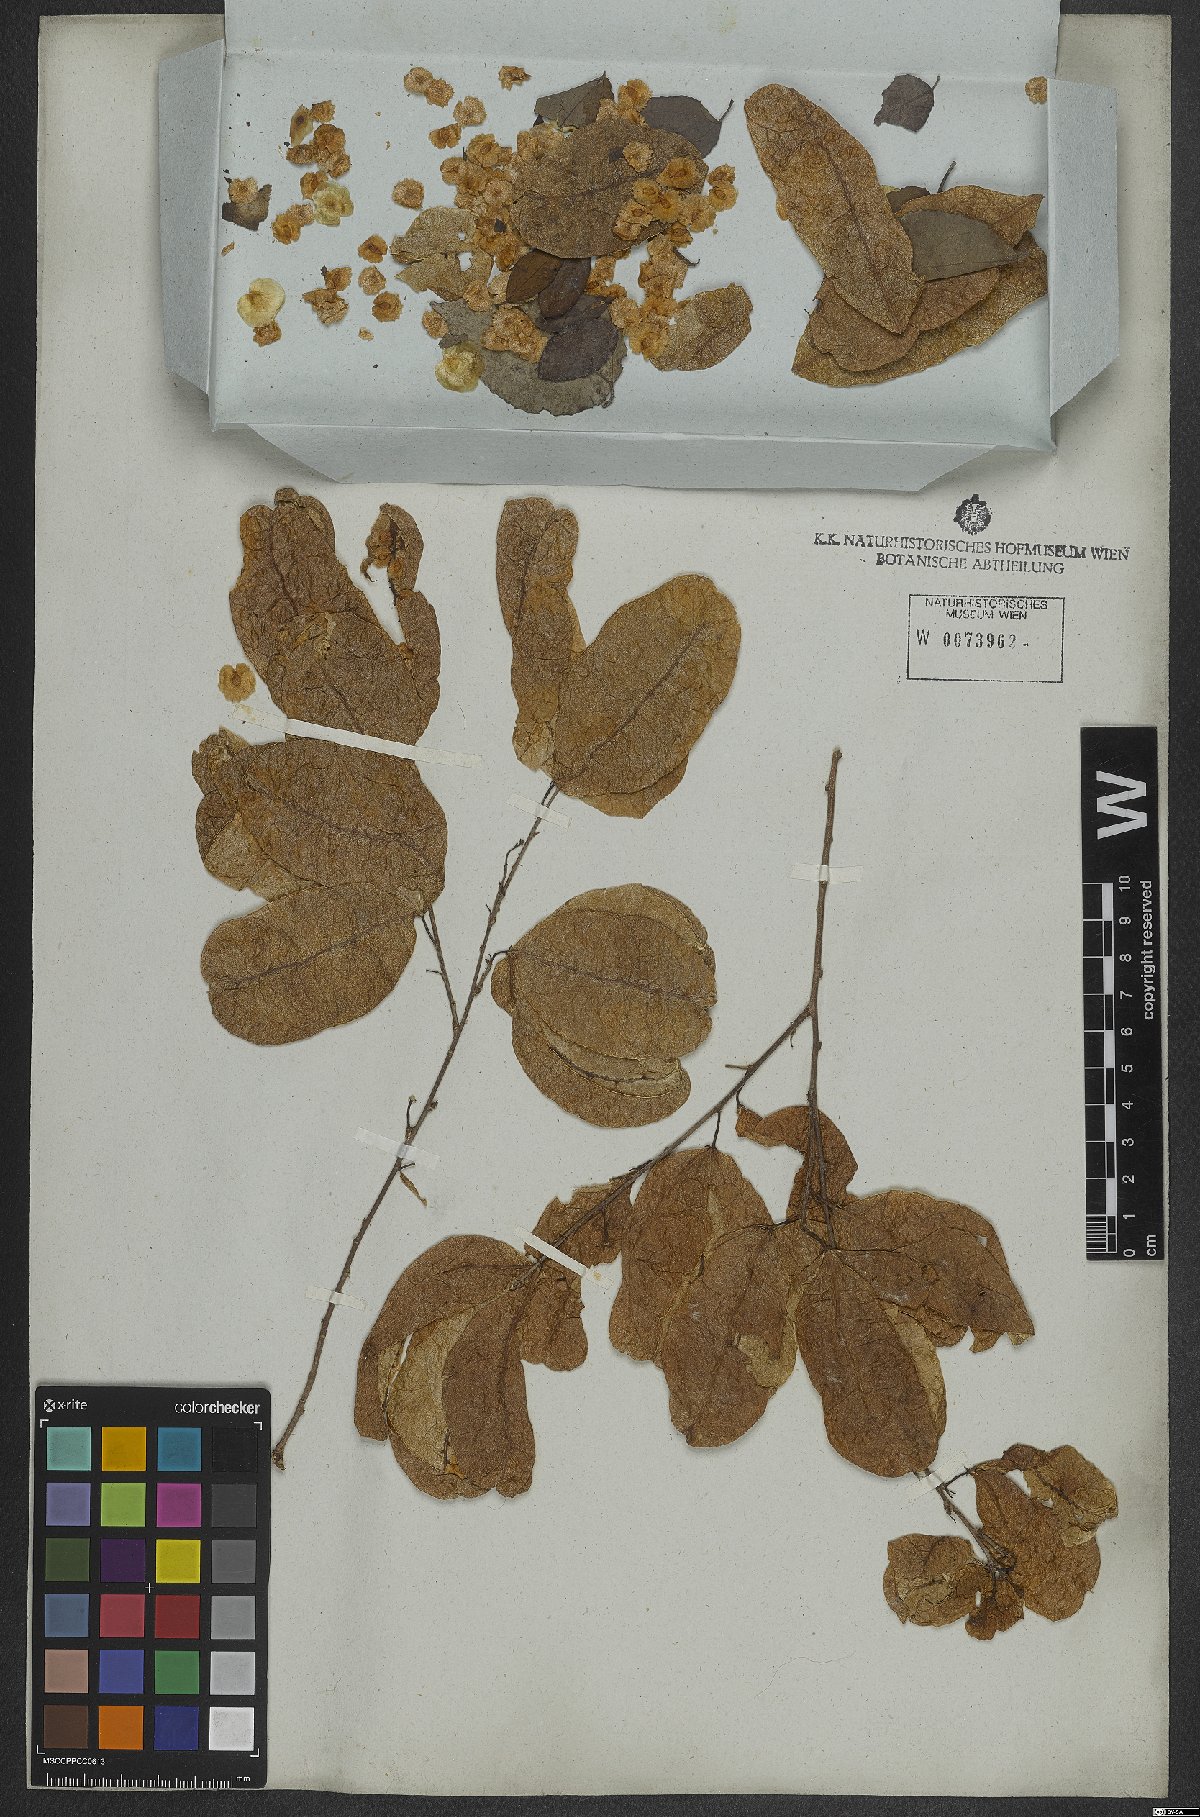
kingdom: Plantae
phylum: Tracheophyta
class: Magnoliopsida
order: Malpighiales
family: Violaceae
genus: Anchietea
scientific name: Anchietea pyrifolia
